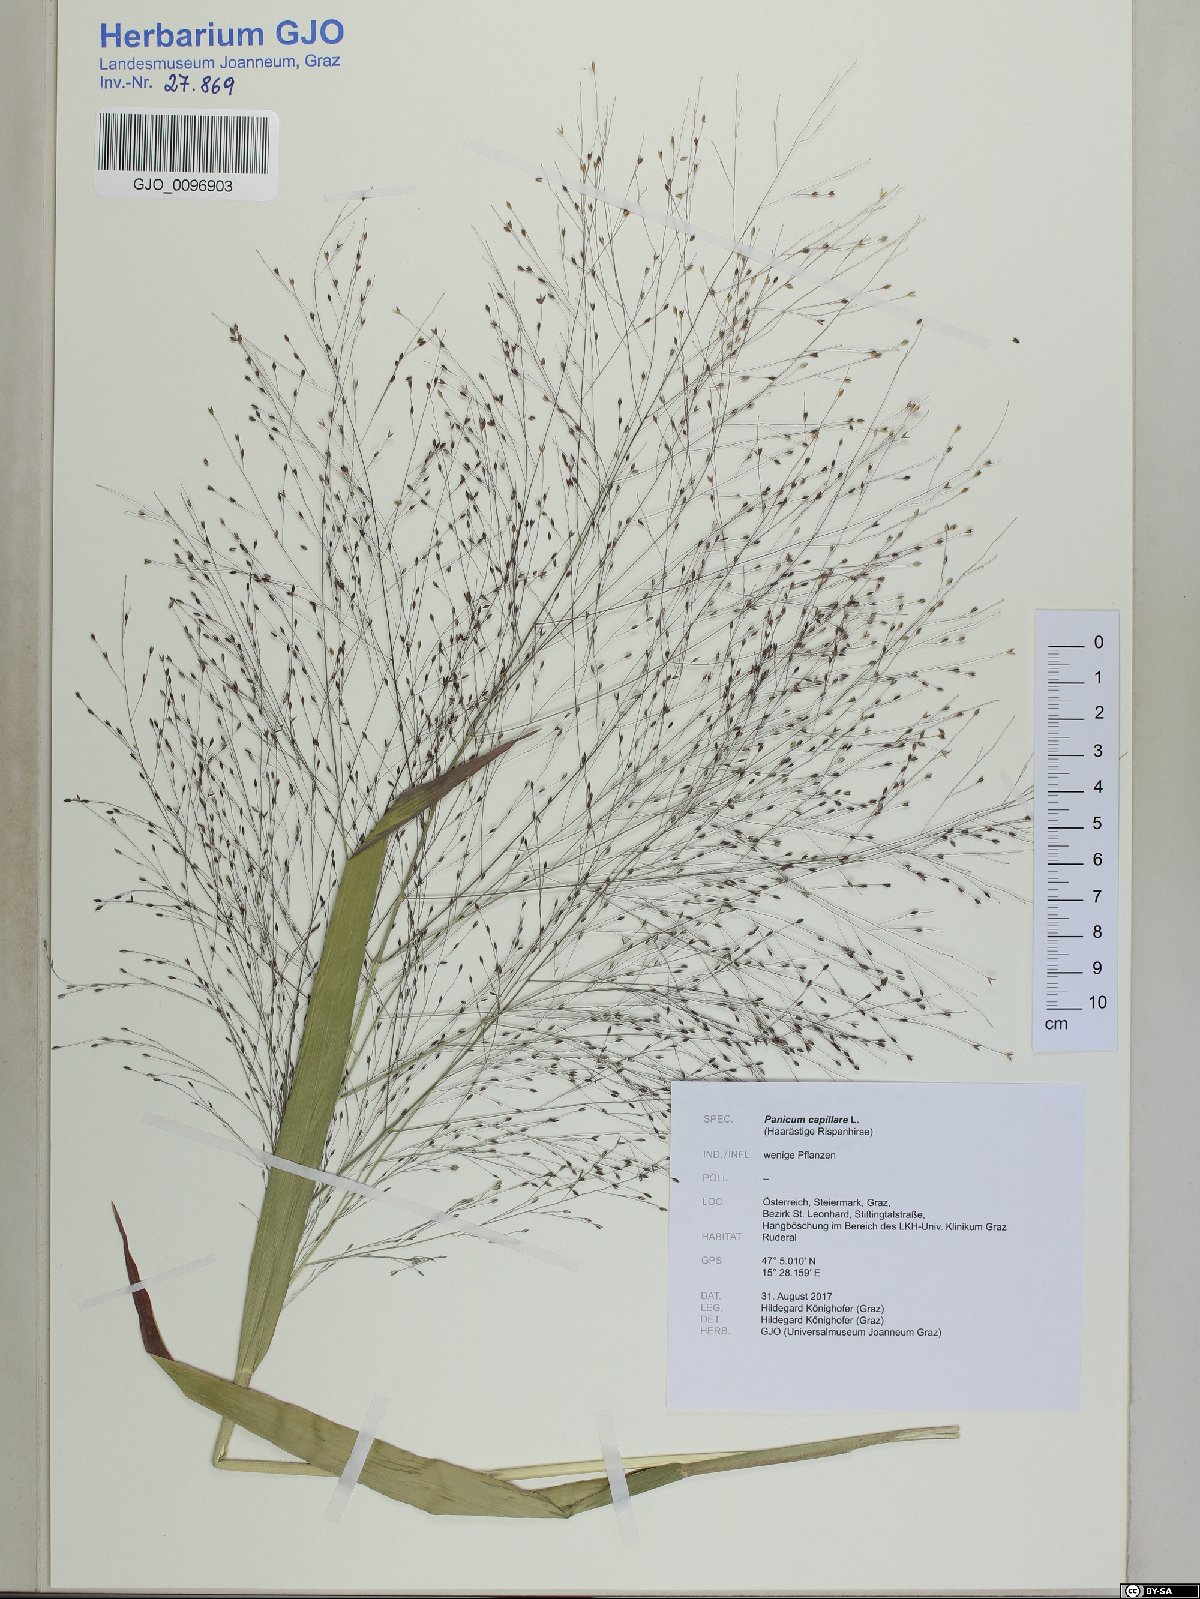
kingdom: Plantae
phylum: Tracheophyta
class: Liliopsida
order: Poales
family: Poaceae
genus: Panicum
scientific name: Panicum capillare
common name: Witch-grass
